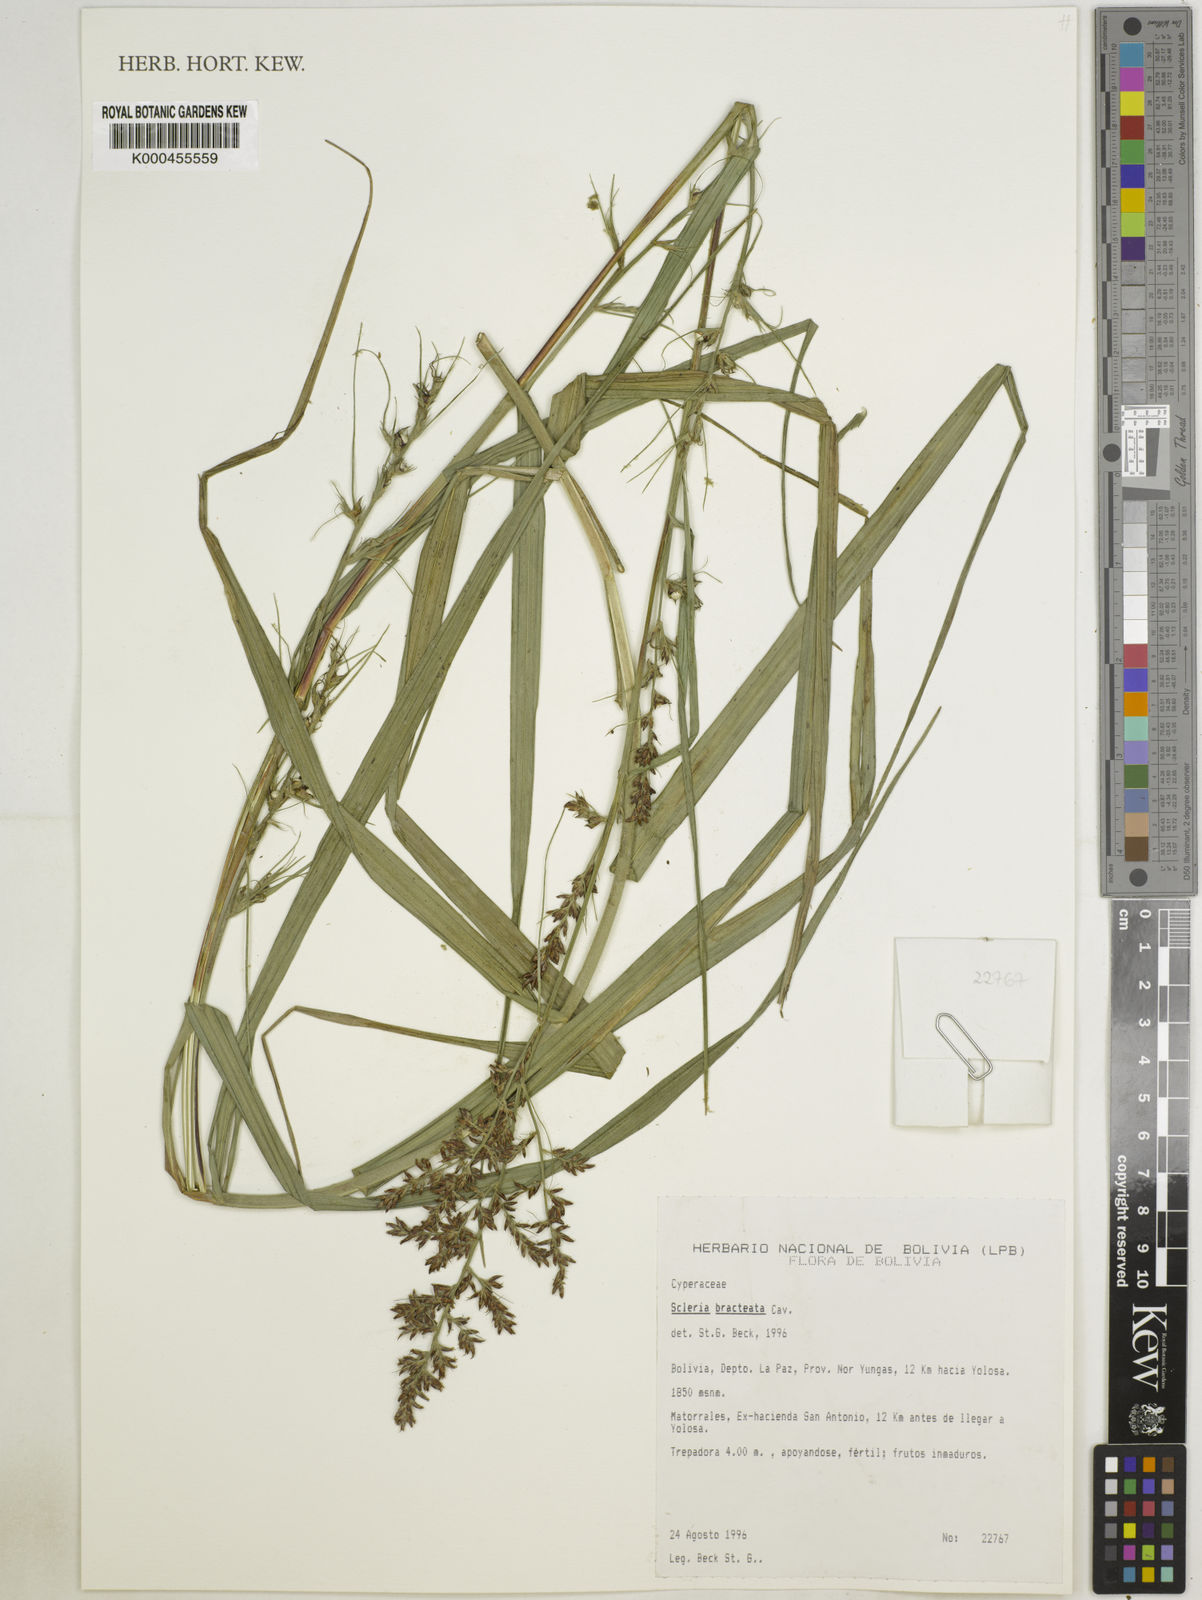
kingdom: Plantae
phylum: Tracheophyta
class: Liliopsida
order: Poales
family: Cyperaceae
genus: Scleria
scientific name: Scleria bracteata
